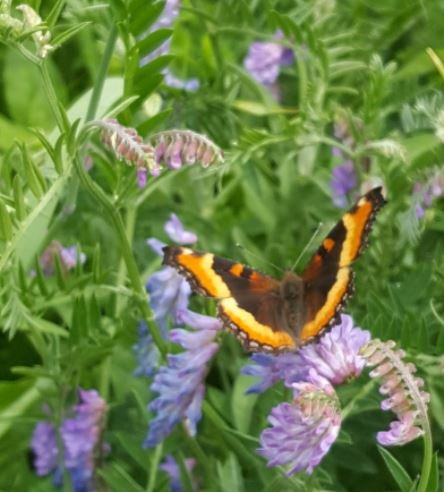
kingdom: Animalia
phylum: Arthropoda
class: Insecta
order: Lepidoptera
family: Nymphalidae
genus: Aglais
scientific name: Aglais milberti
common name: Milbert's Tortoiseshell
